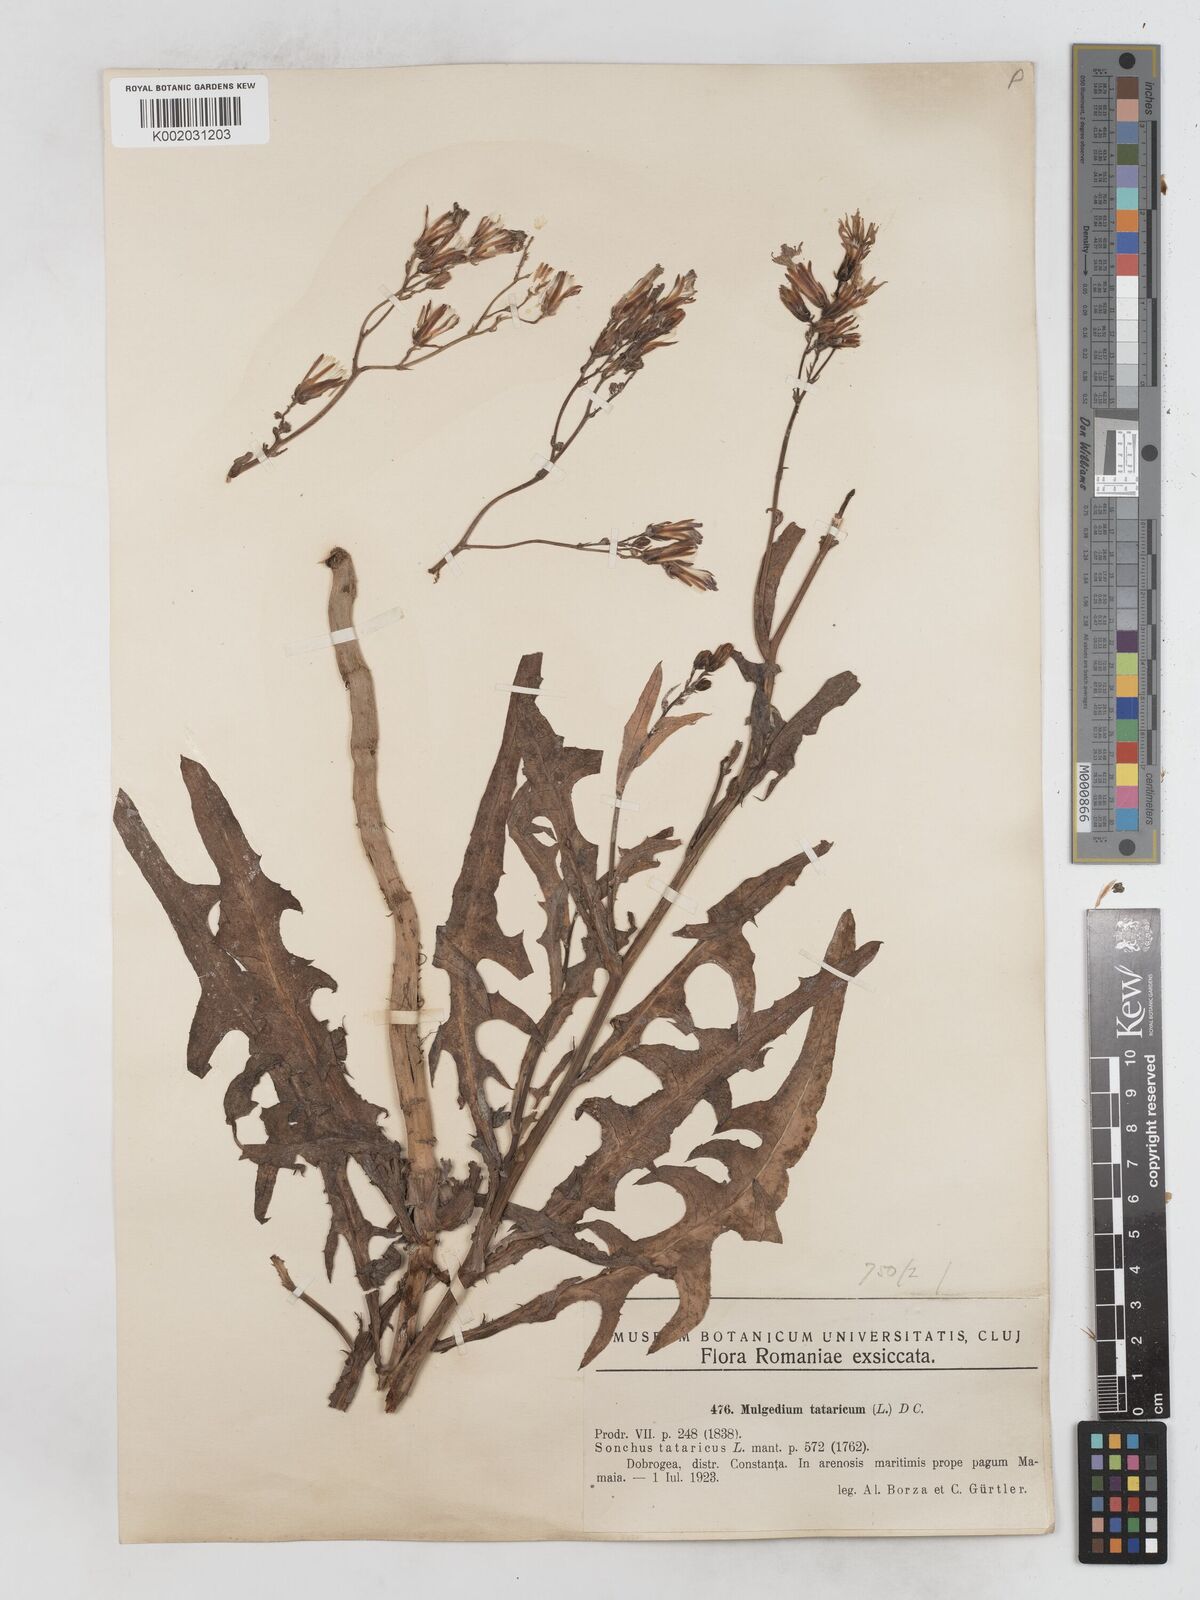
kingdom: Plantae
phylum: Tracheophyta
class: Magnoliopsida
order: Asterales
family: Asteraceae
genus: Lactuca
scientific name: Lactuca tatarica
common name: Blue lettuce
